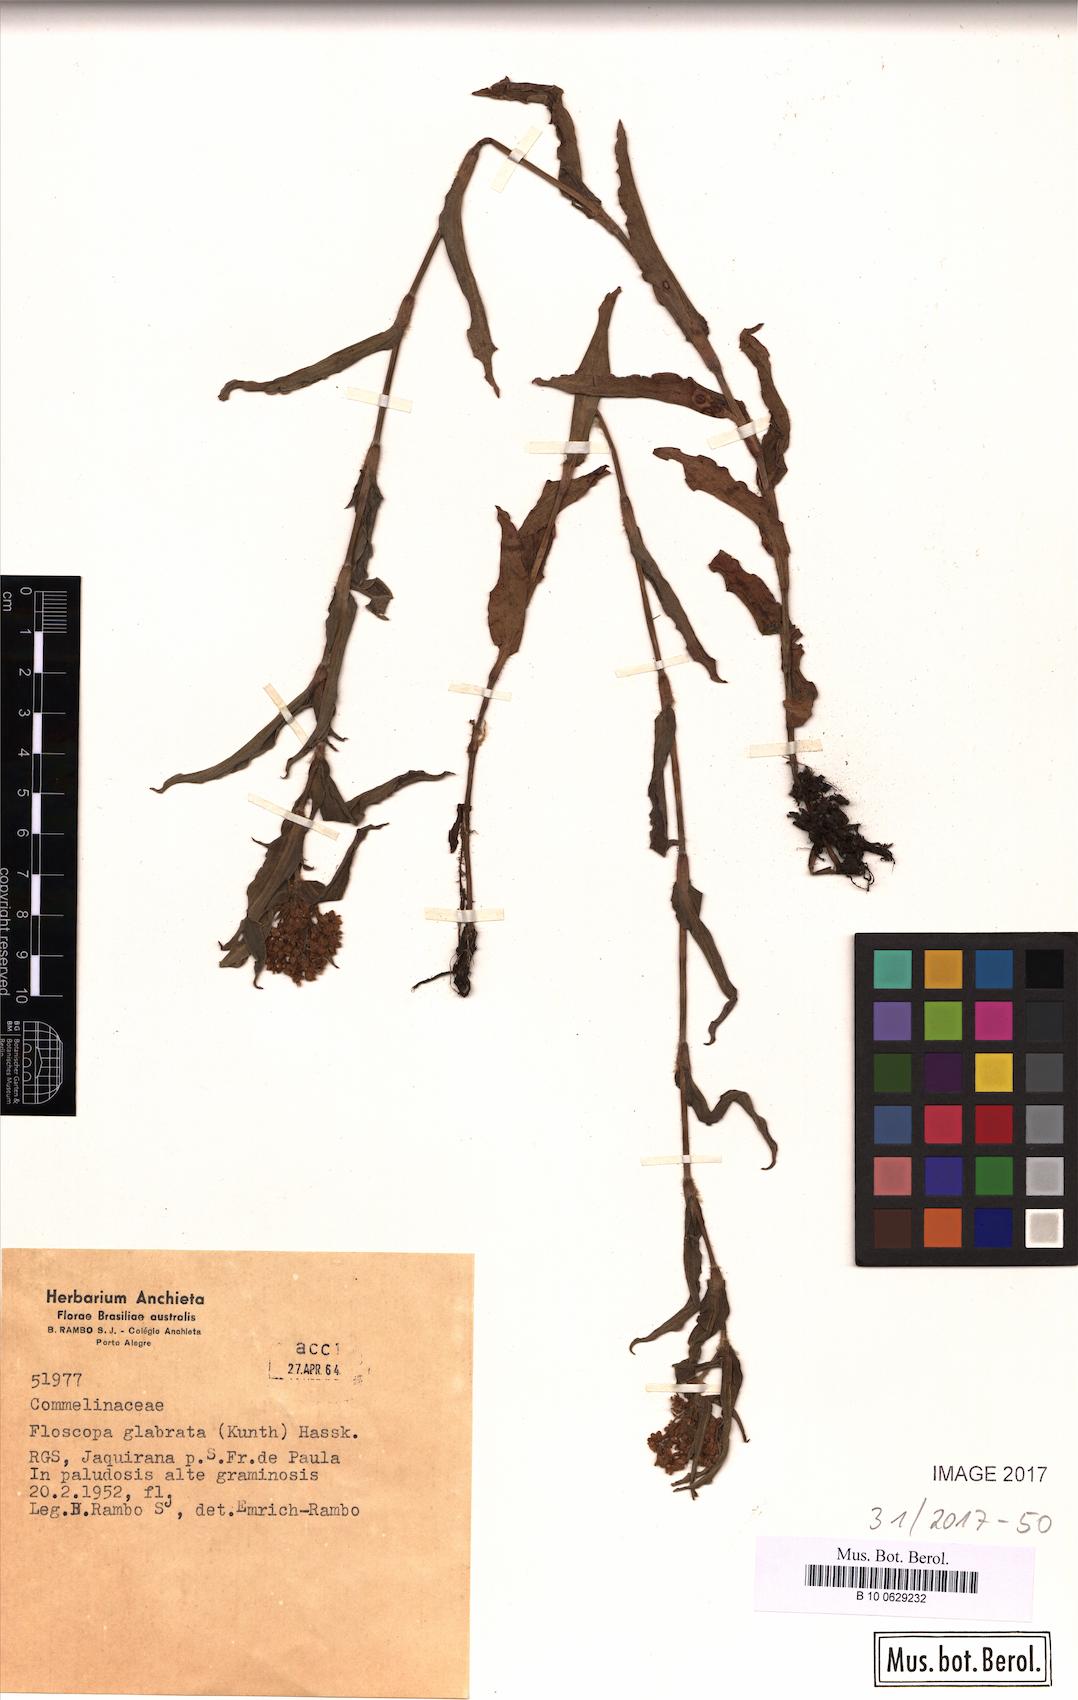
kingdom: Plantae
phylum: Tracheophyta
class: Liliopsida
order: Commelinales
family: Commelinaceae
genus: Floscopa
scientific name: Floscopa glabrata
